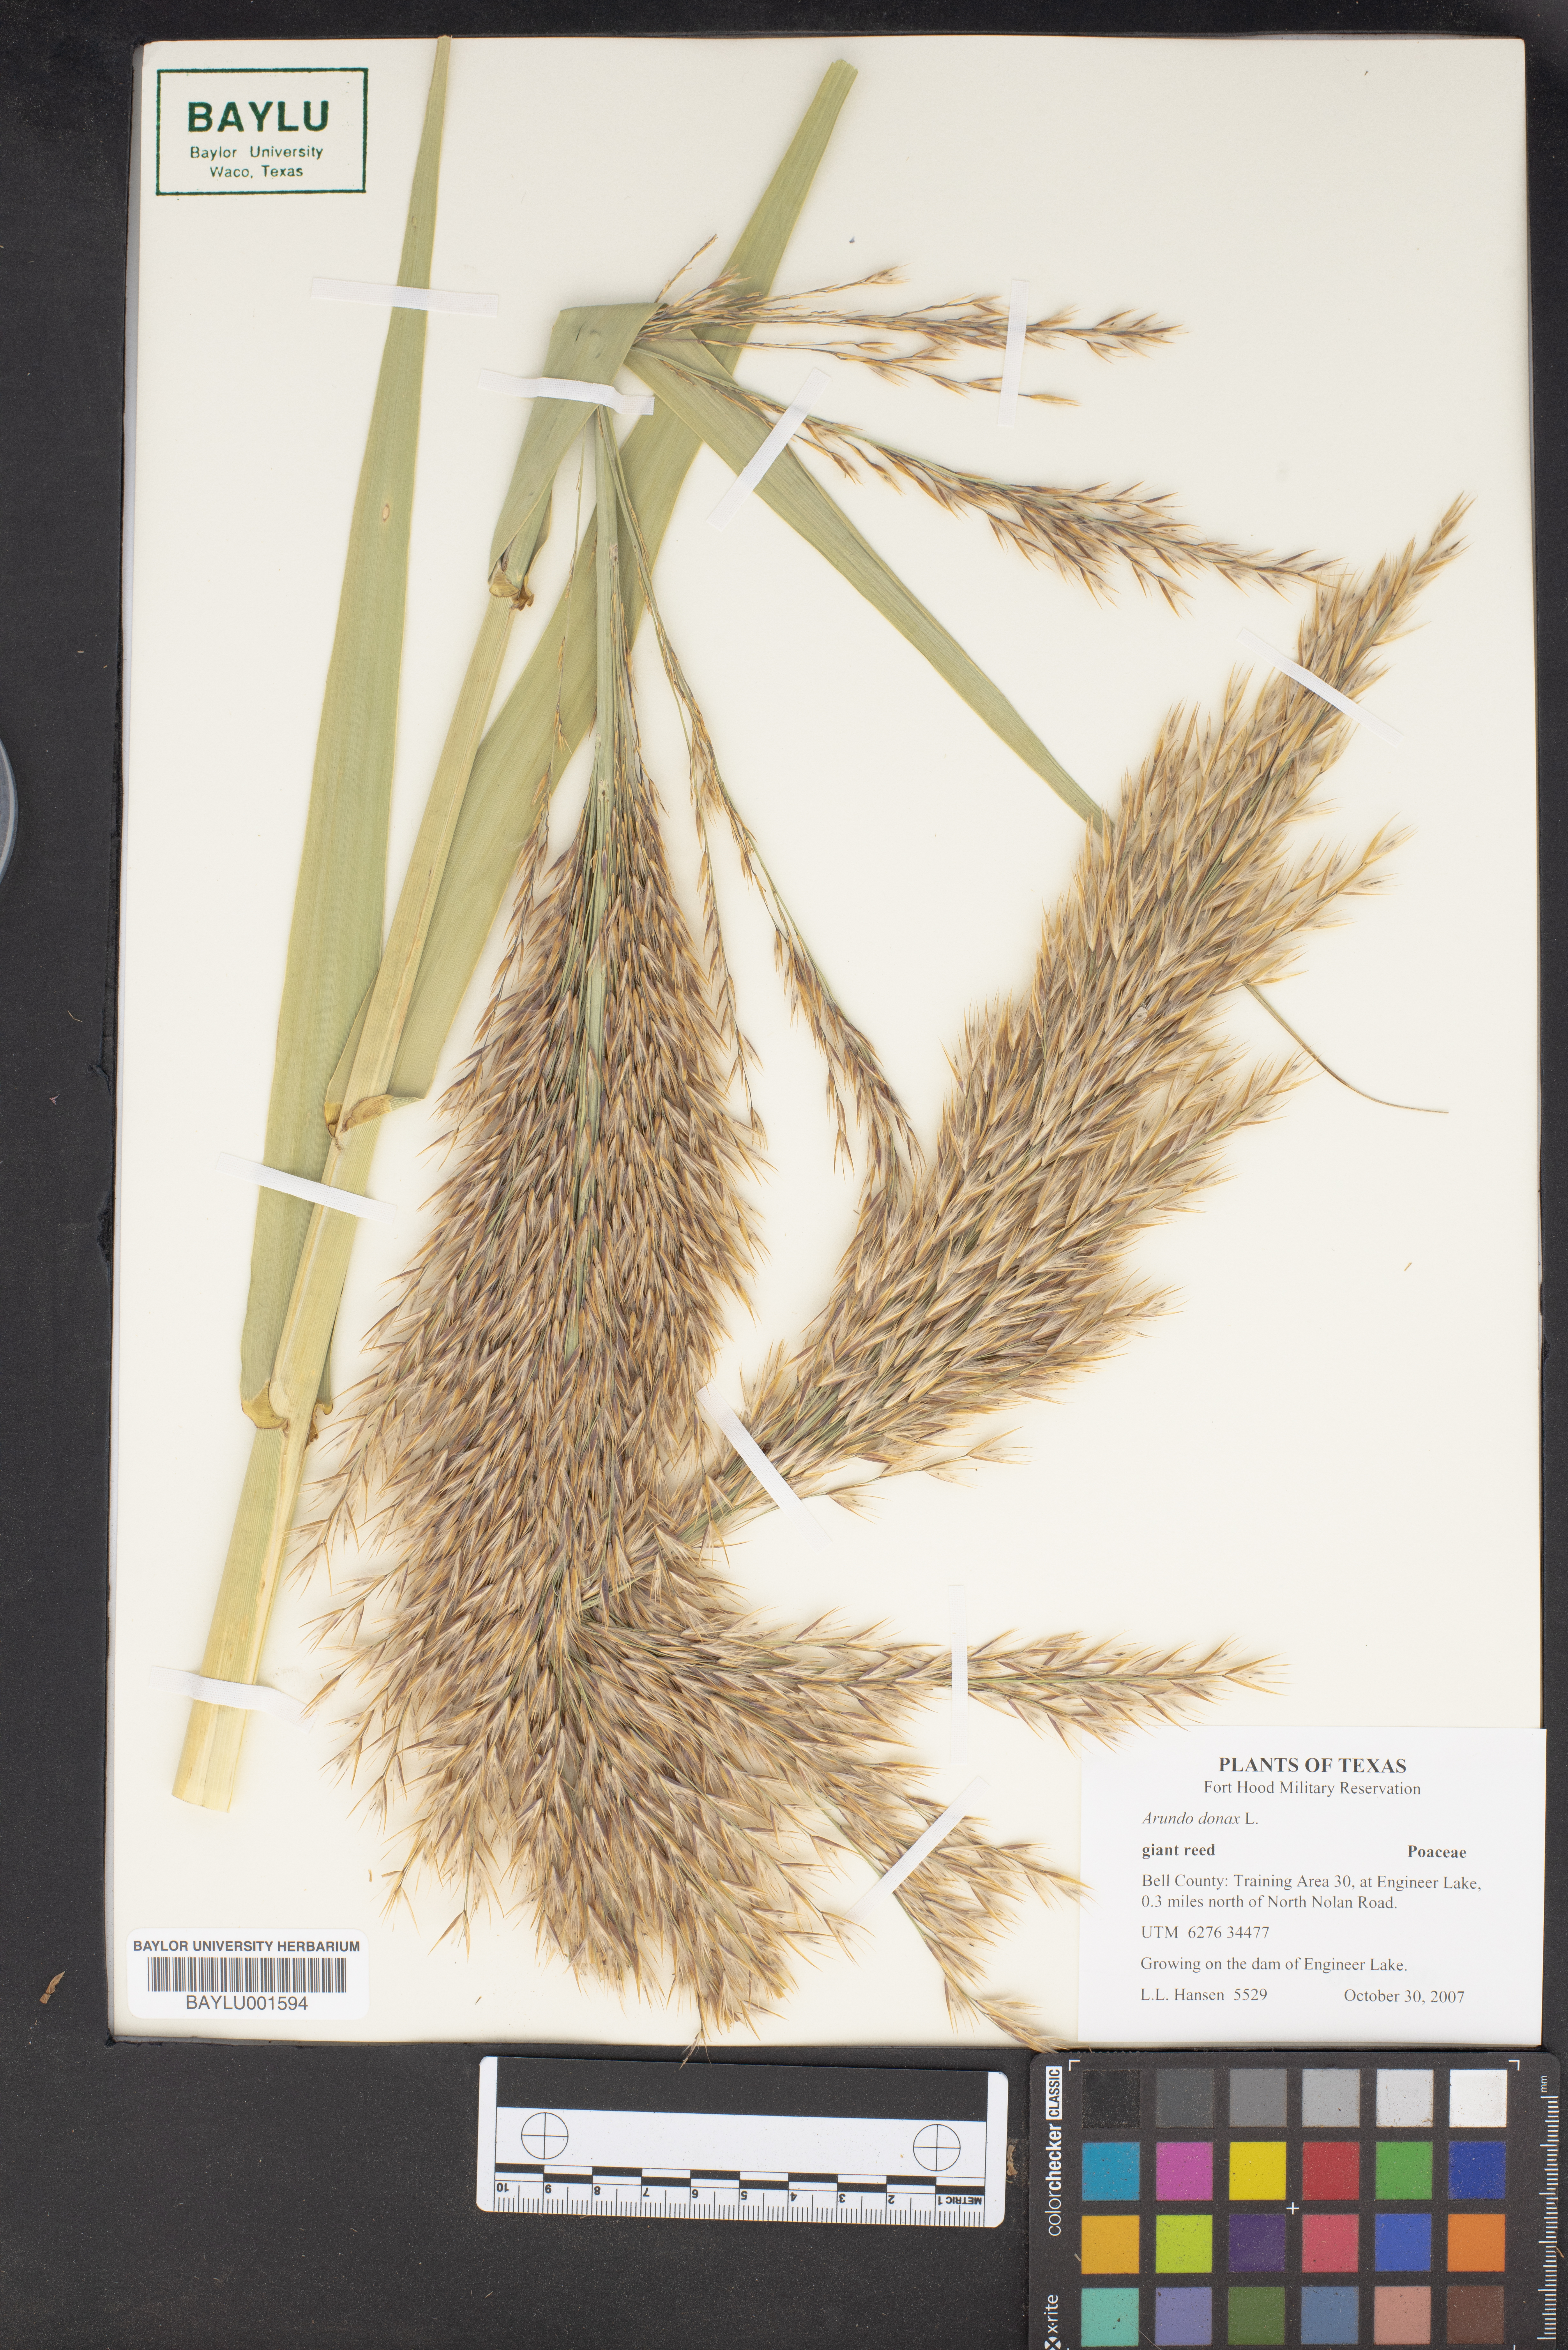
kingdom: Plantae
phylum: Tracheophyta
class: Liliopsida
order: Poales
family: Poaceae
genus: Arundo
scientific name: Arundo donax
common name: Giant reed
